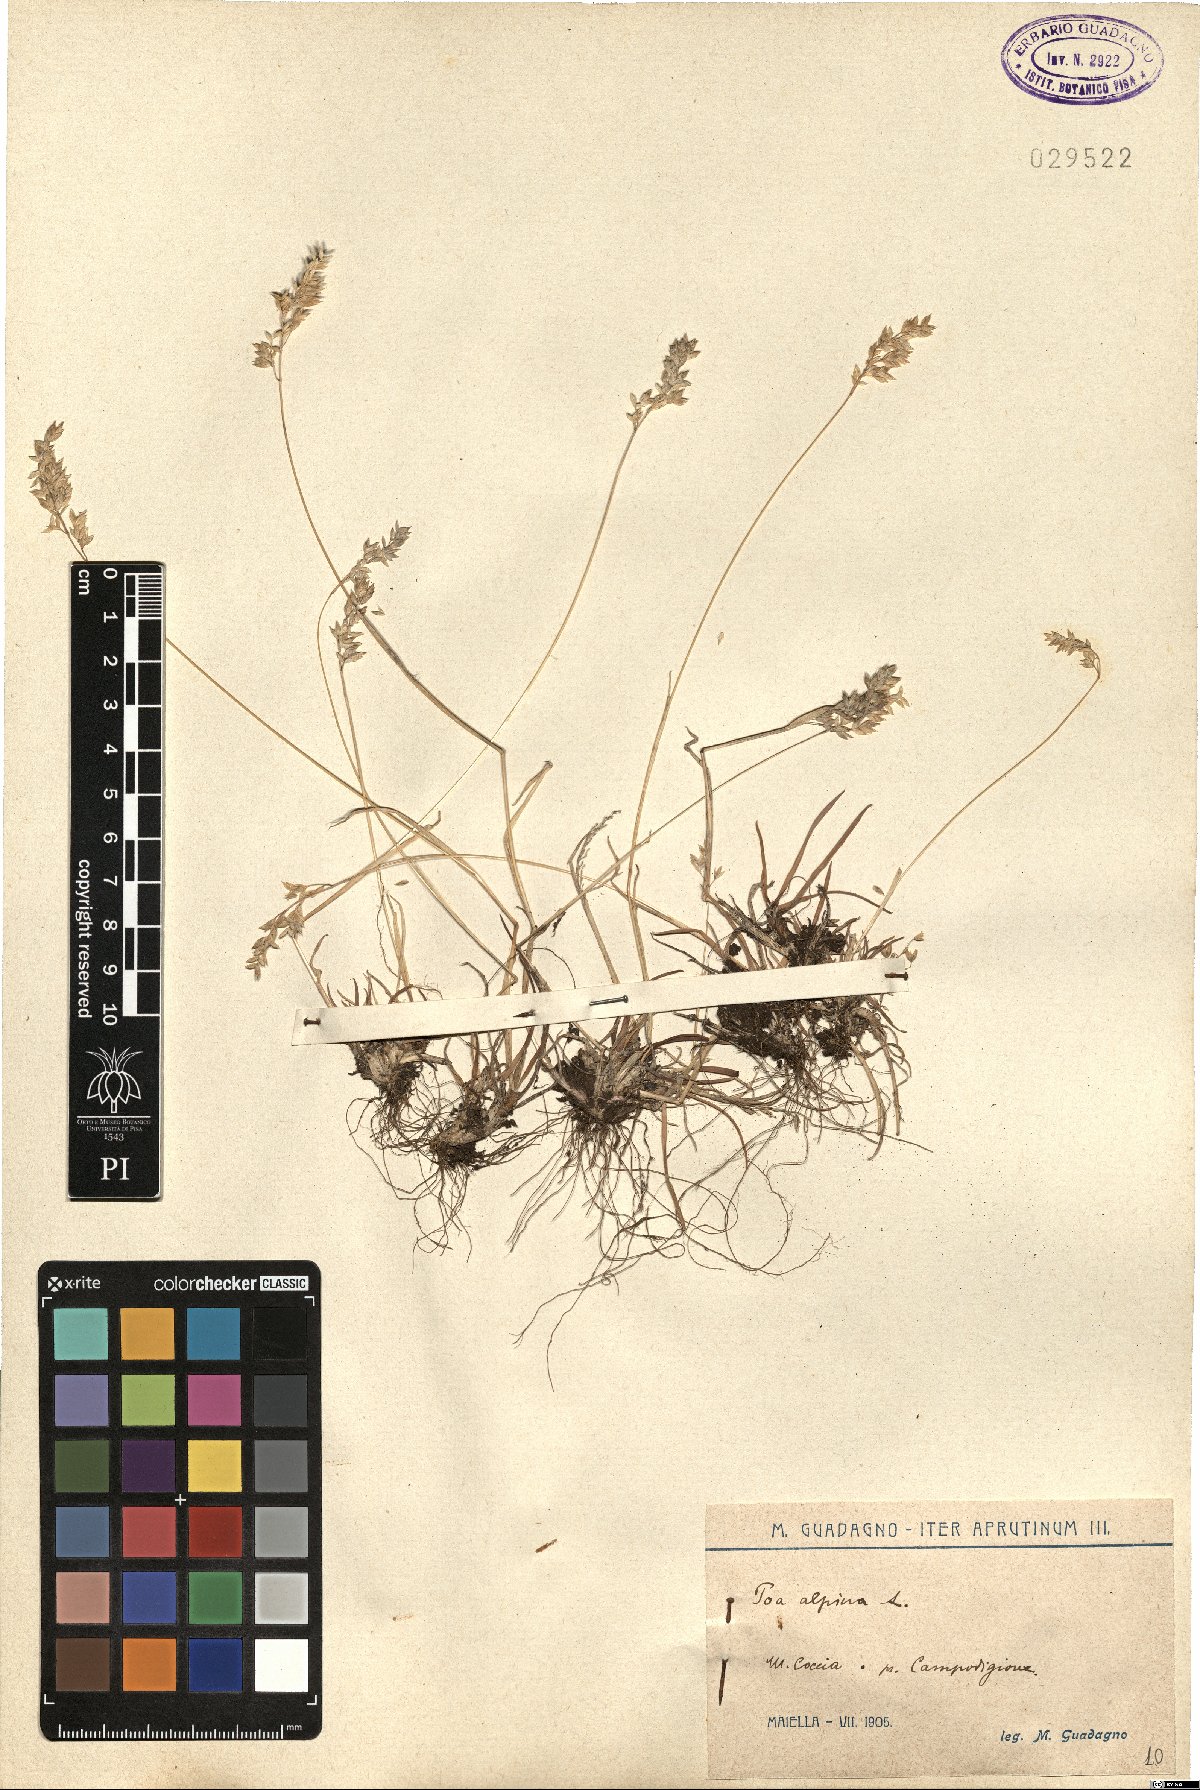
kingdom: Plantae
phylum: Tracheophyta
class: Liliopsida
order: Poales
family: Poaceae
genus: Poa
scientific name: Poa alpina
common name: Alpine bluegrass
